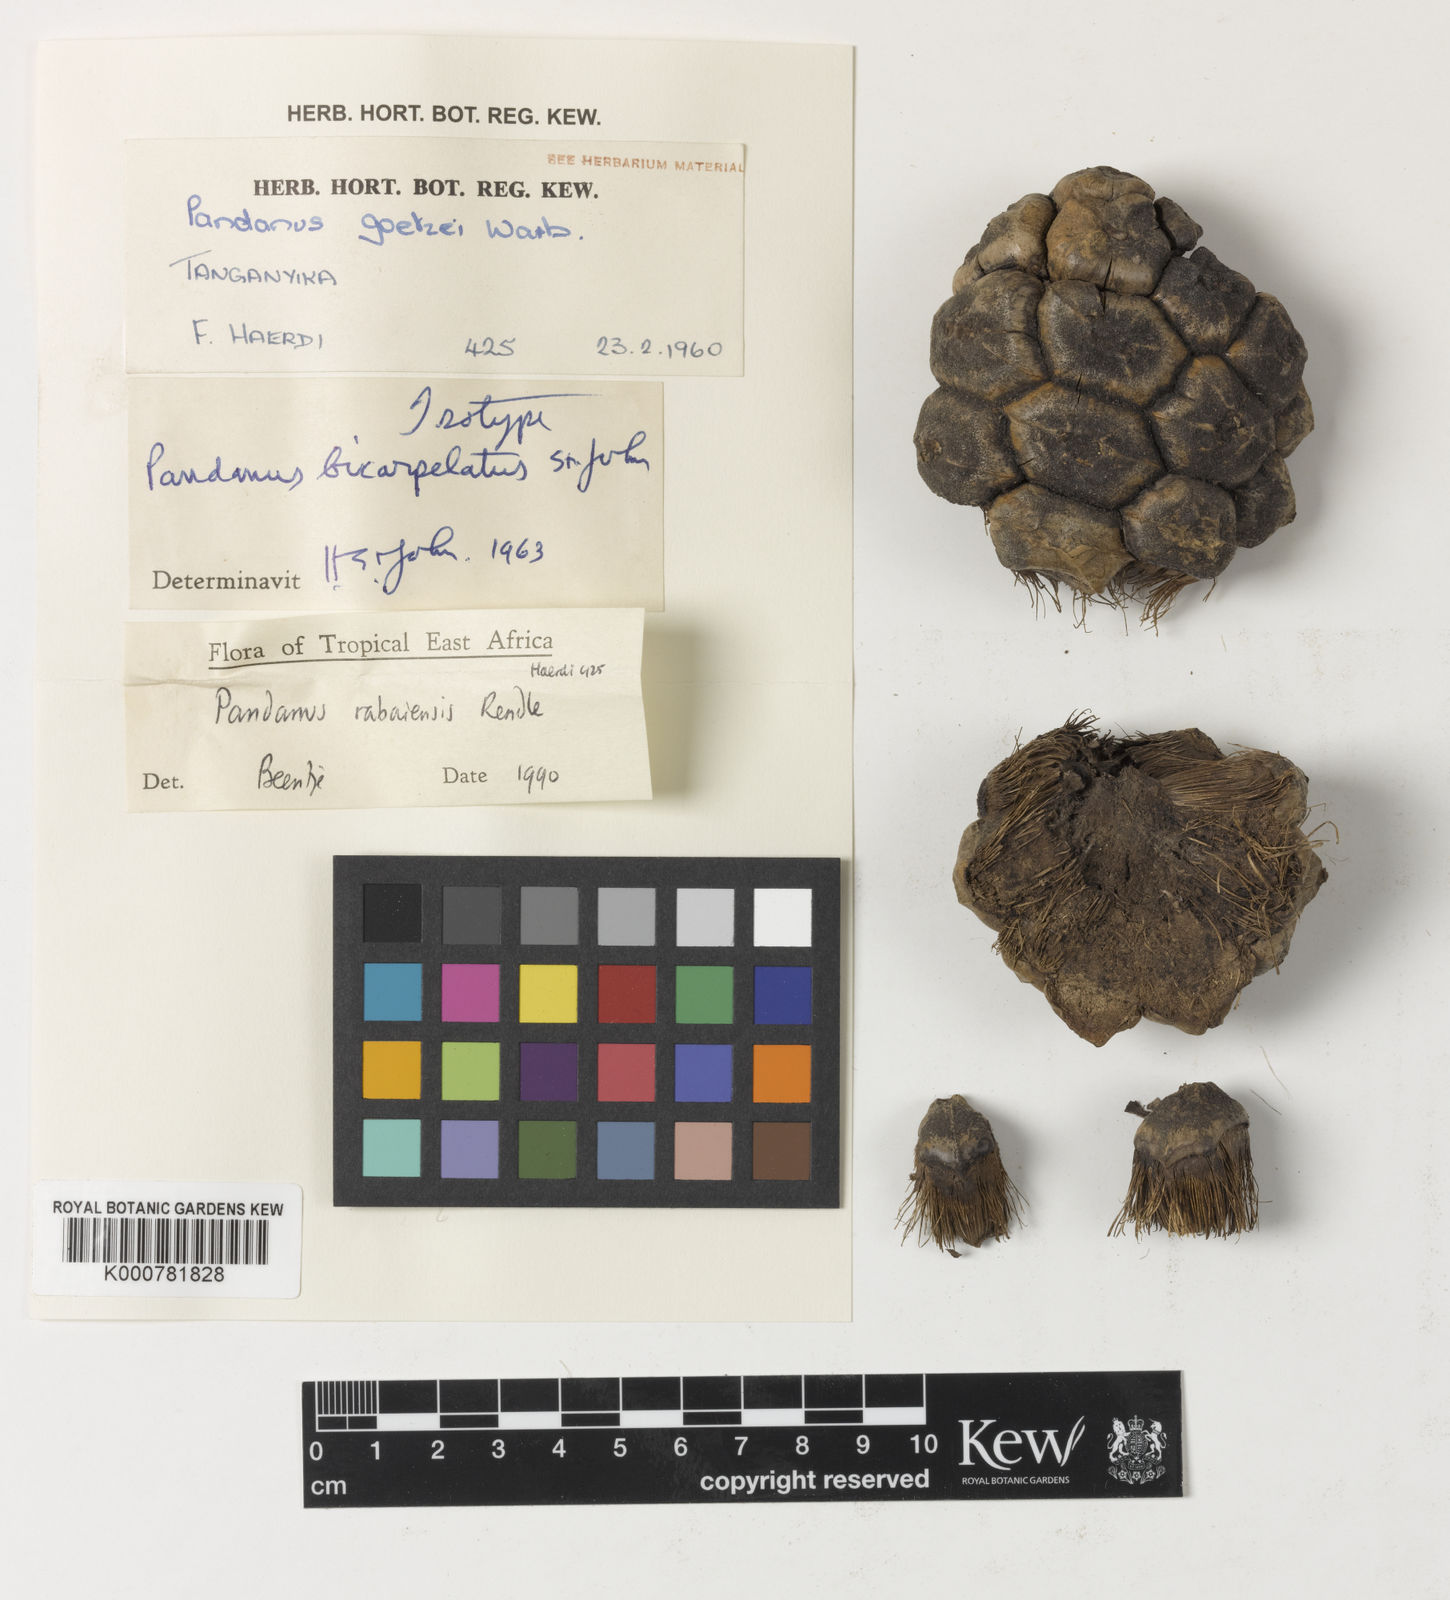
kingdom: Plantae
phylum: Tracheophyta
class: Liliopsida
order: Pandanales
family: Pandanaceae
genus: Pandanus
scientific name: Pandanus
